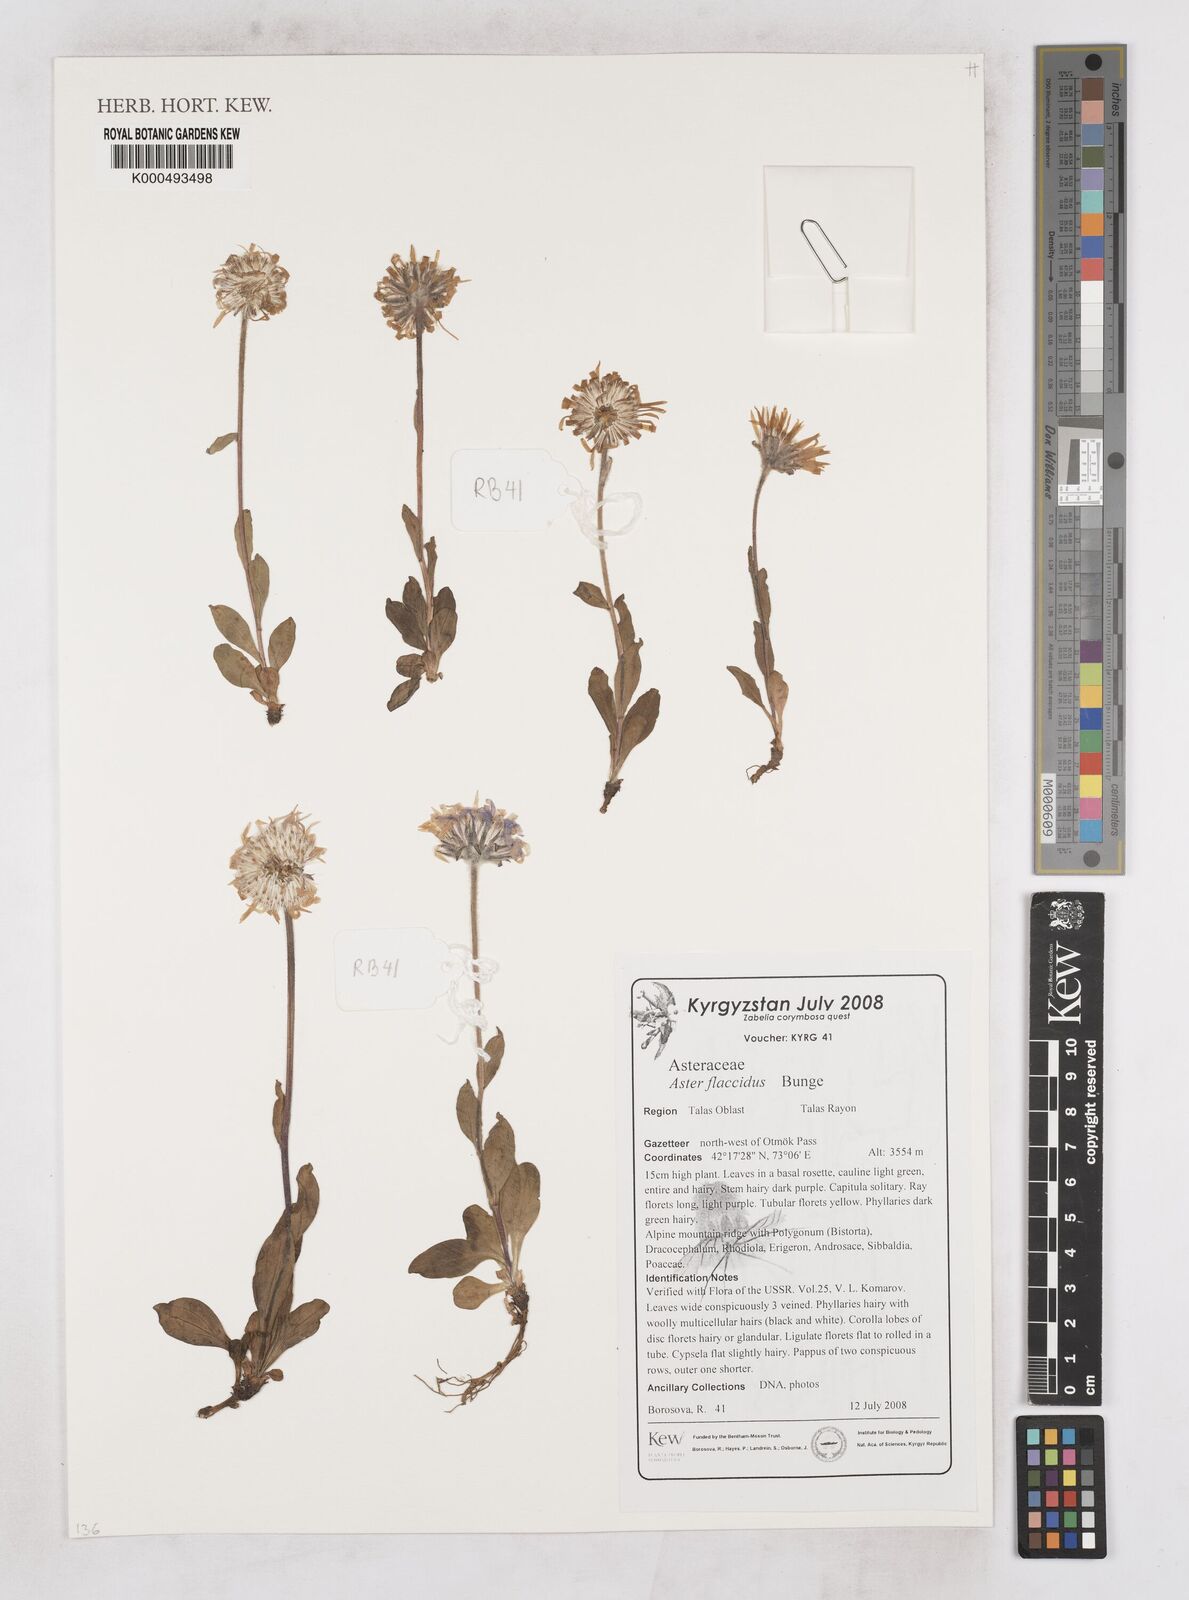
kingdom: Plantae
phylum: Tracheophyta
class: Magnoliopsida
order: Asterales
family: Asteraceae
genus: Tibetiodes
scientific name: Tibetiodes flaccida
